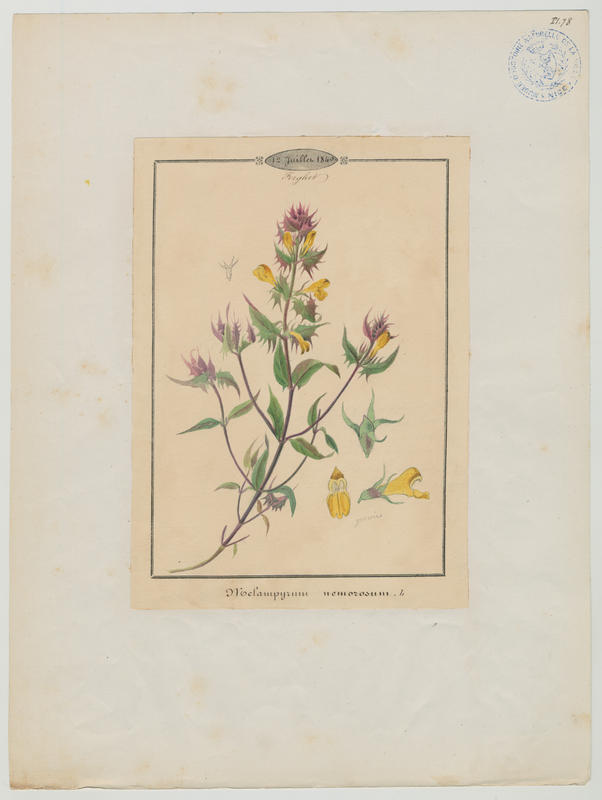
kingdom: Plantae
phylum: Tracheophyta
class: Magnoliopsida
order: Lamiales
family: Orobanchaceae
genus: Melampyrum
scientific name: Melampyrum nemorosum
